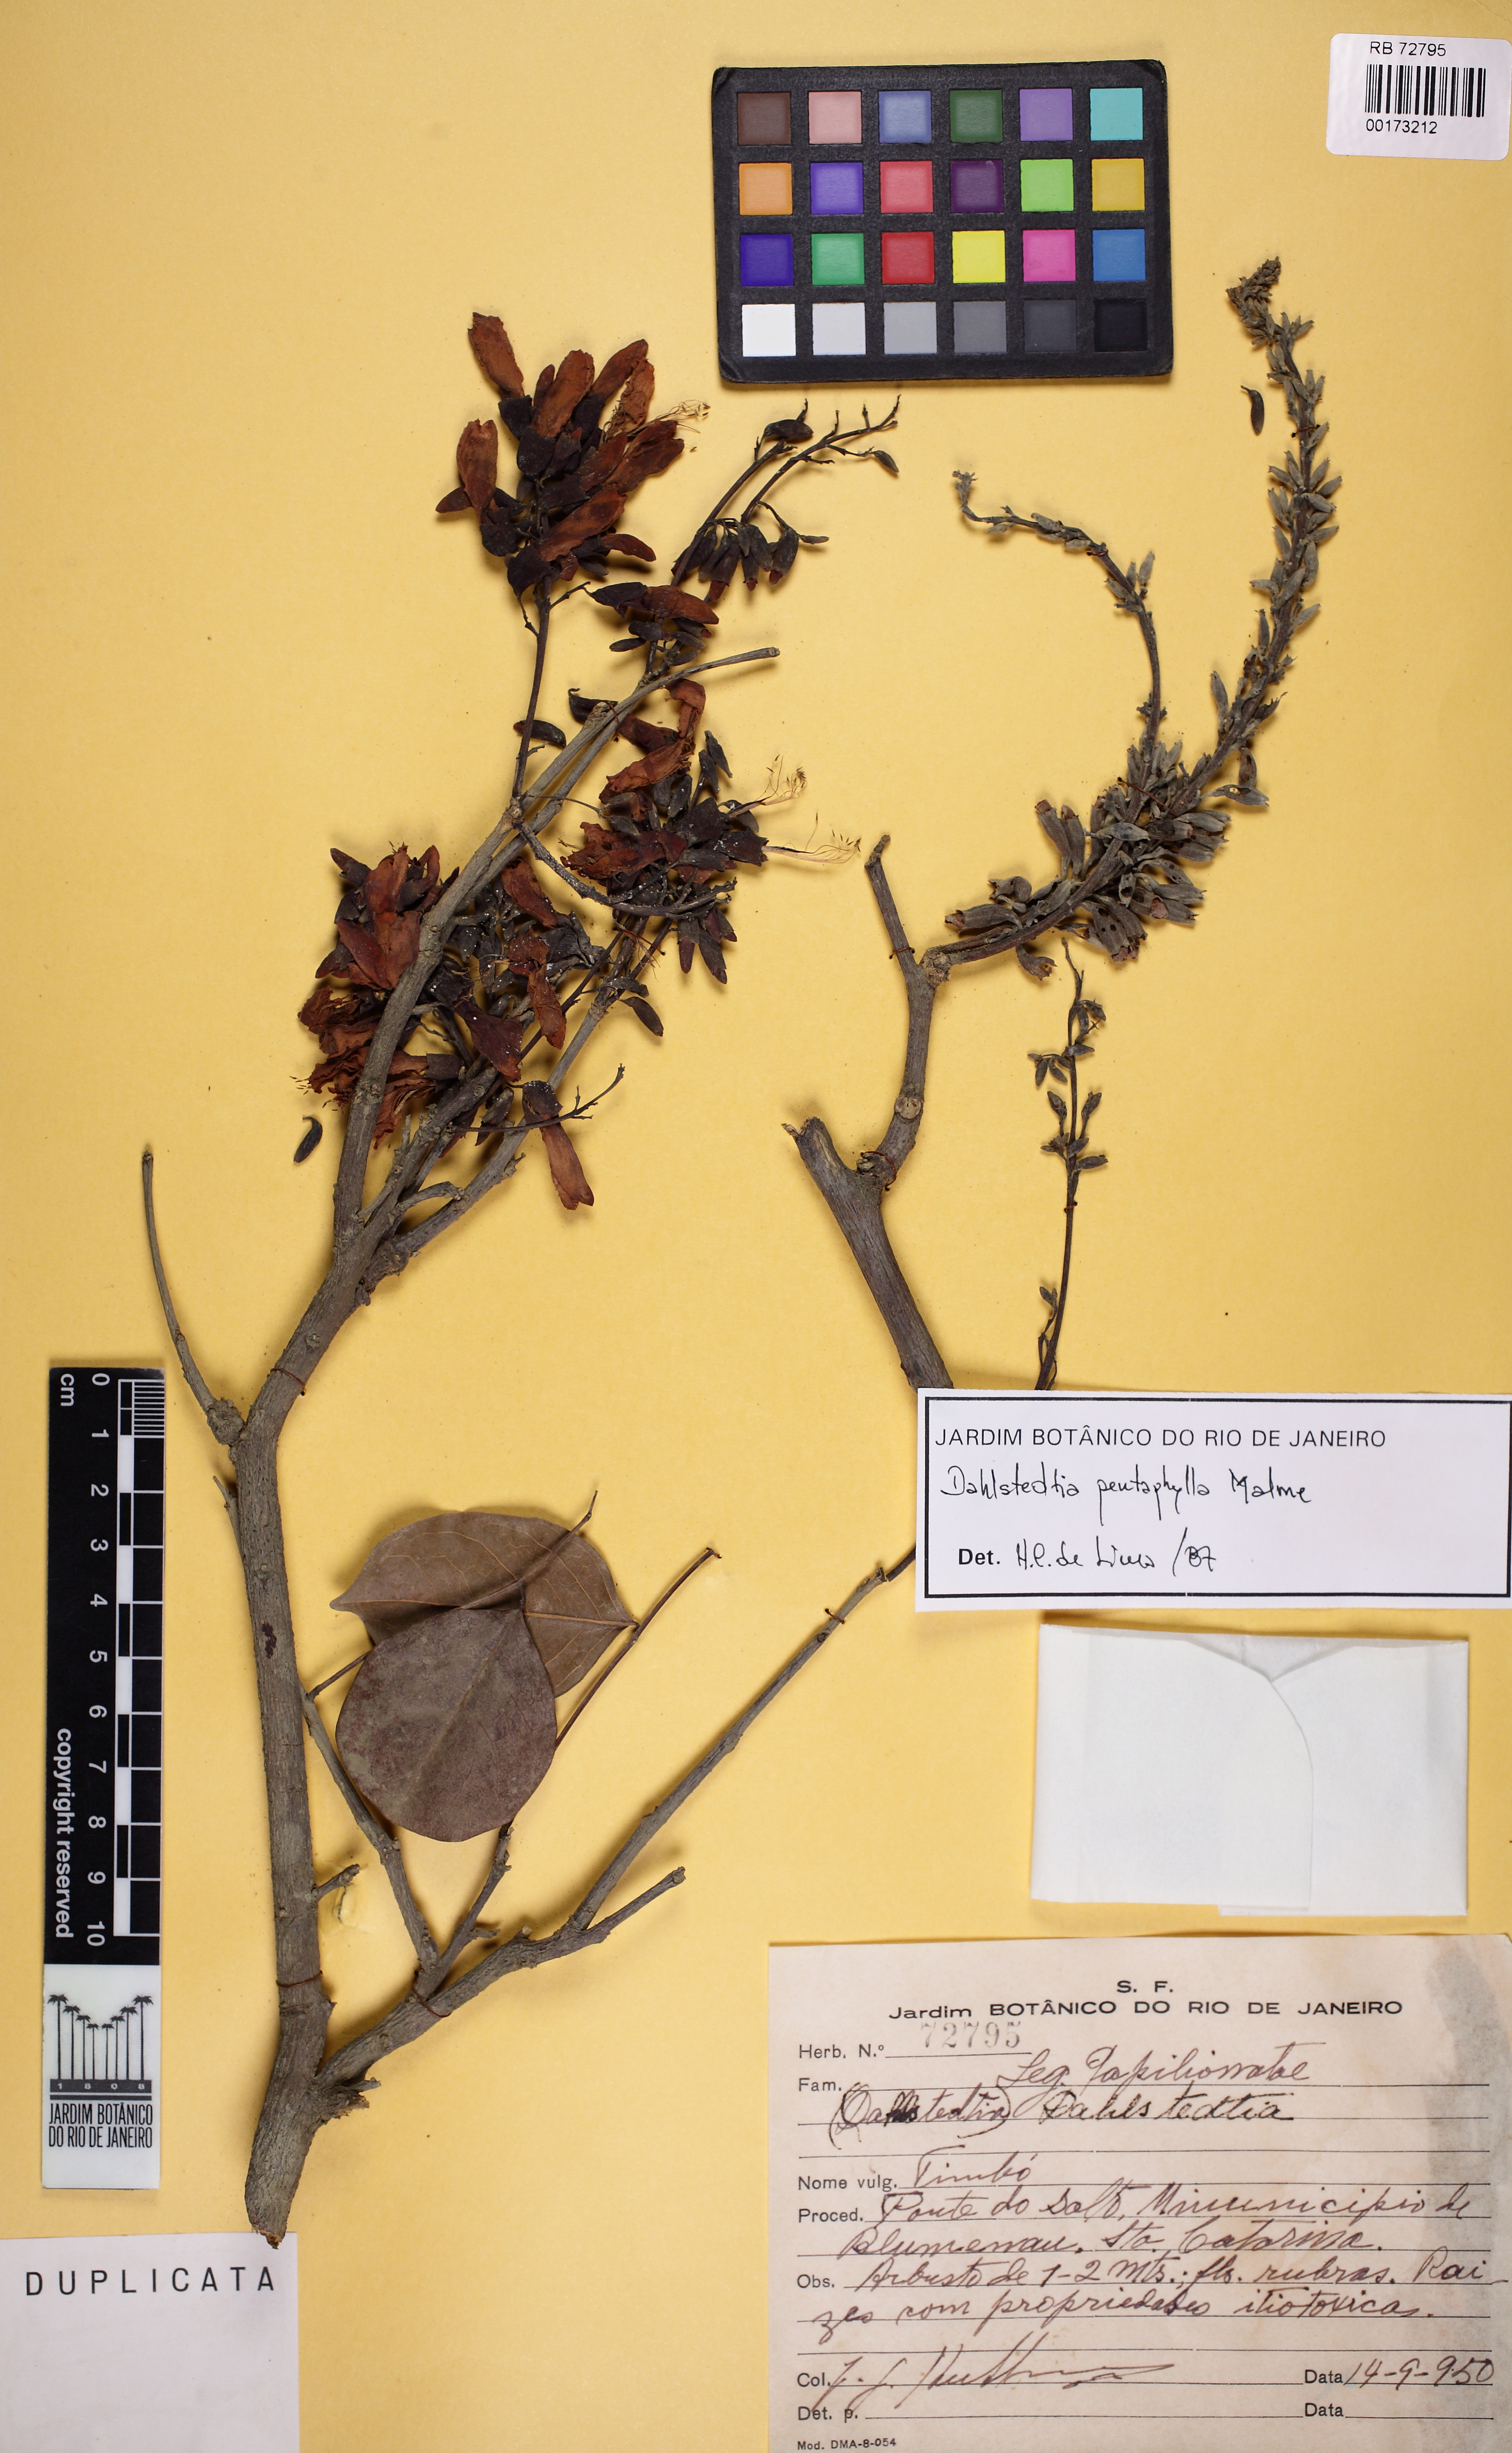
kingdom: Plantae
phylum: Tracheophyta
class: Magnoliopsida
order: Fabales
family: Fabaceae
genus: Dahlstedtia
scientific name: Dahlstedtia pentaphylla
